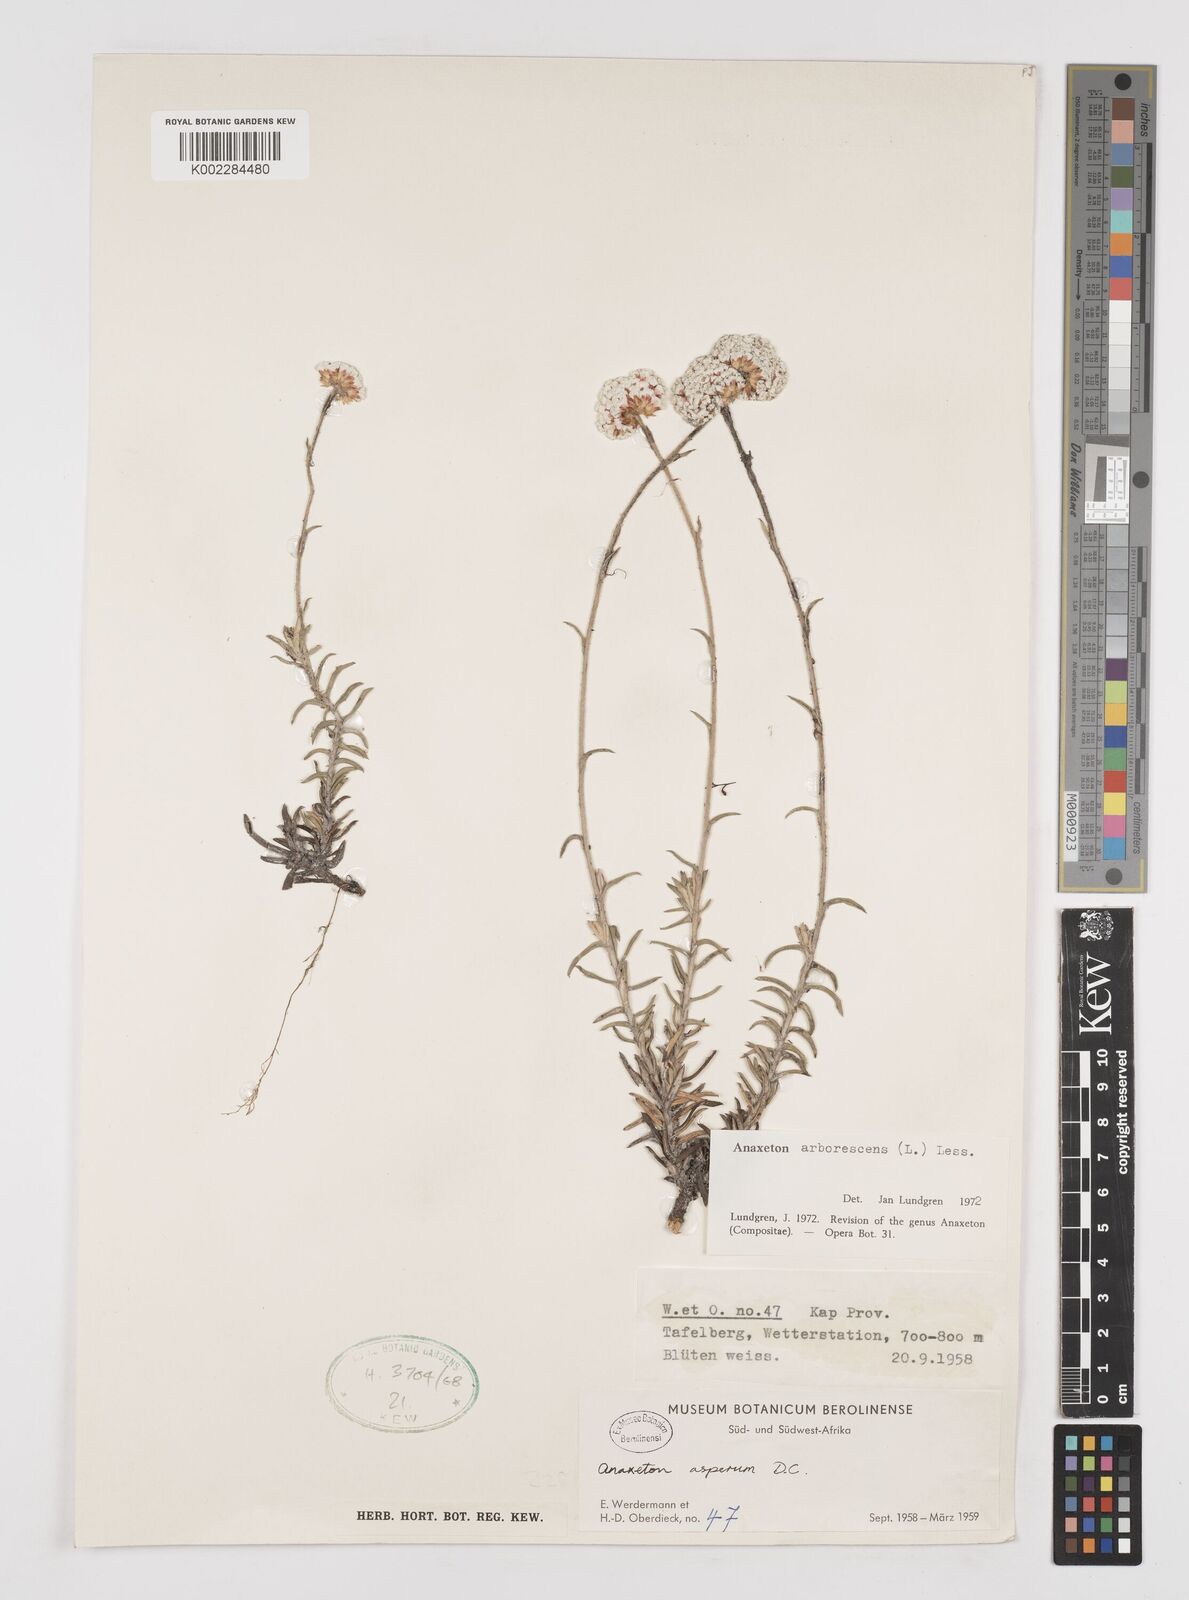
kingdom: Plantae
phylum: Tracheophyta
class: Magnoliopsida
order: Asterales
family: Asteraceae
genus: Anaxeton
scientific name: Anaxeton arborescens
